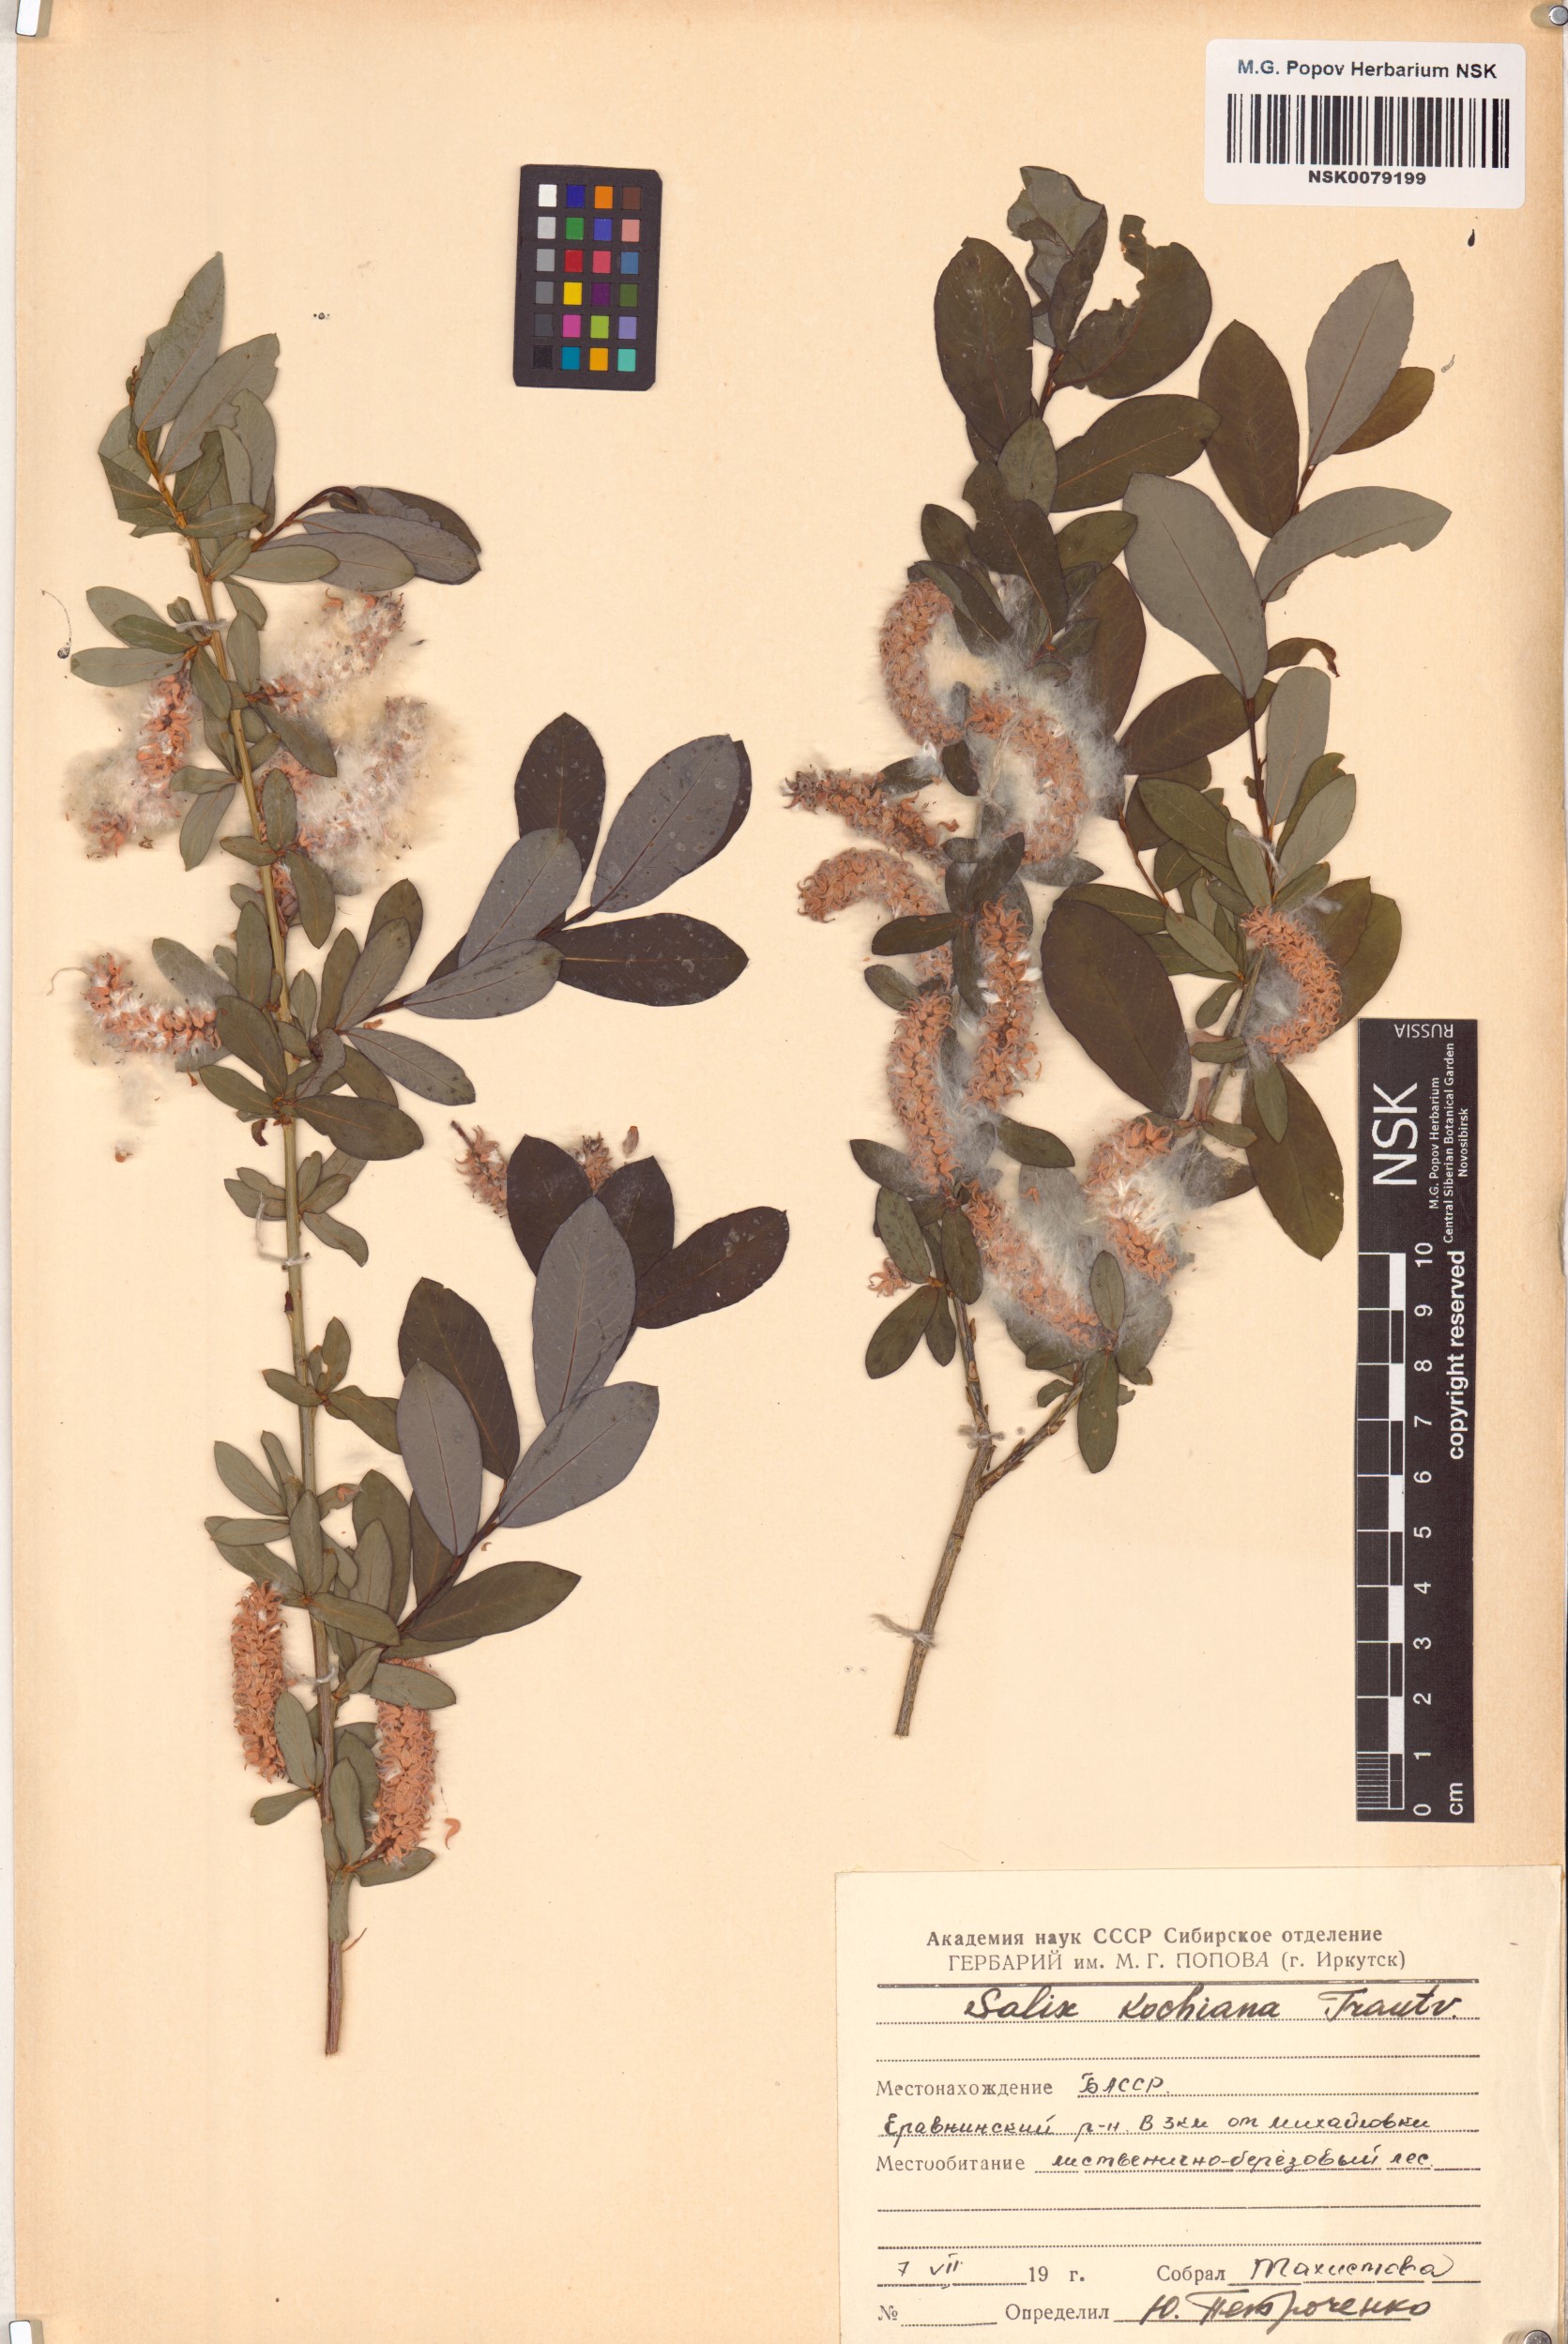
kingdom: Plantae
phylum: Tracheophyta
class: Magnoliopsida
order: Malpighiales
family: Salicaceae
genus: Salix
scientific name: Salix kochiana
